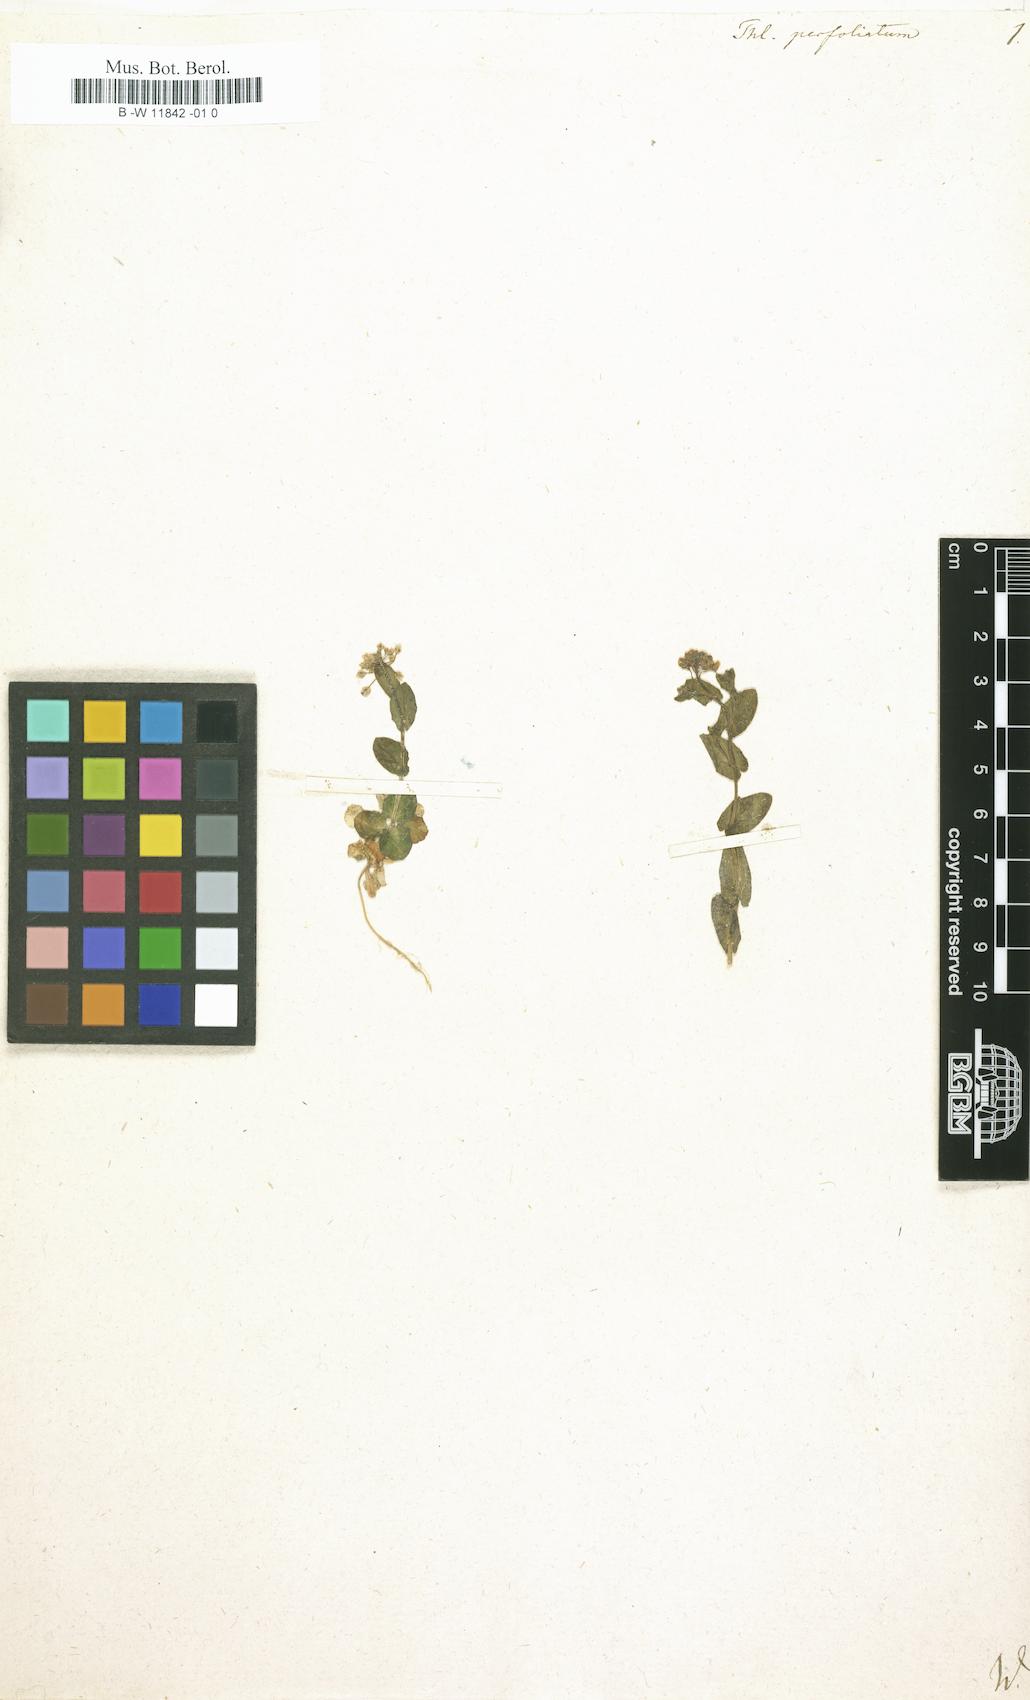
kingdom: Plantae
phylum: Tracheophyta
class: Magnoliopsida
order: Brassicales
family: Brassicaceae
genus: Noccaea
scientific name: Noccaea perfoliata
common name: Perfoliate pennycress
